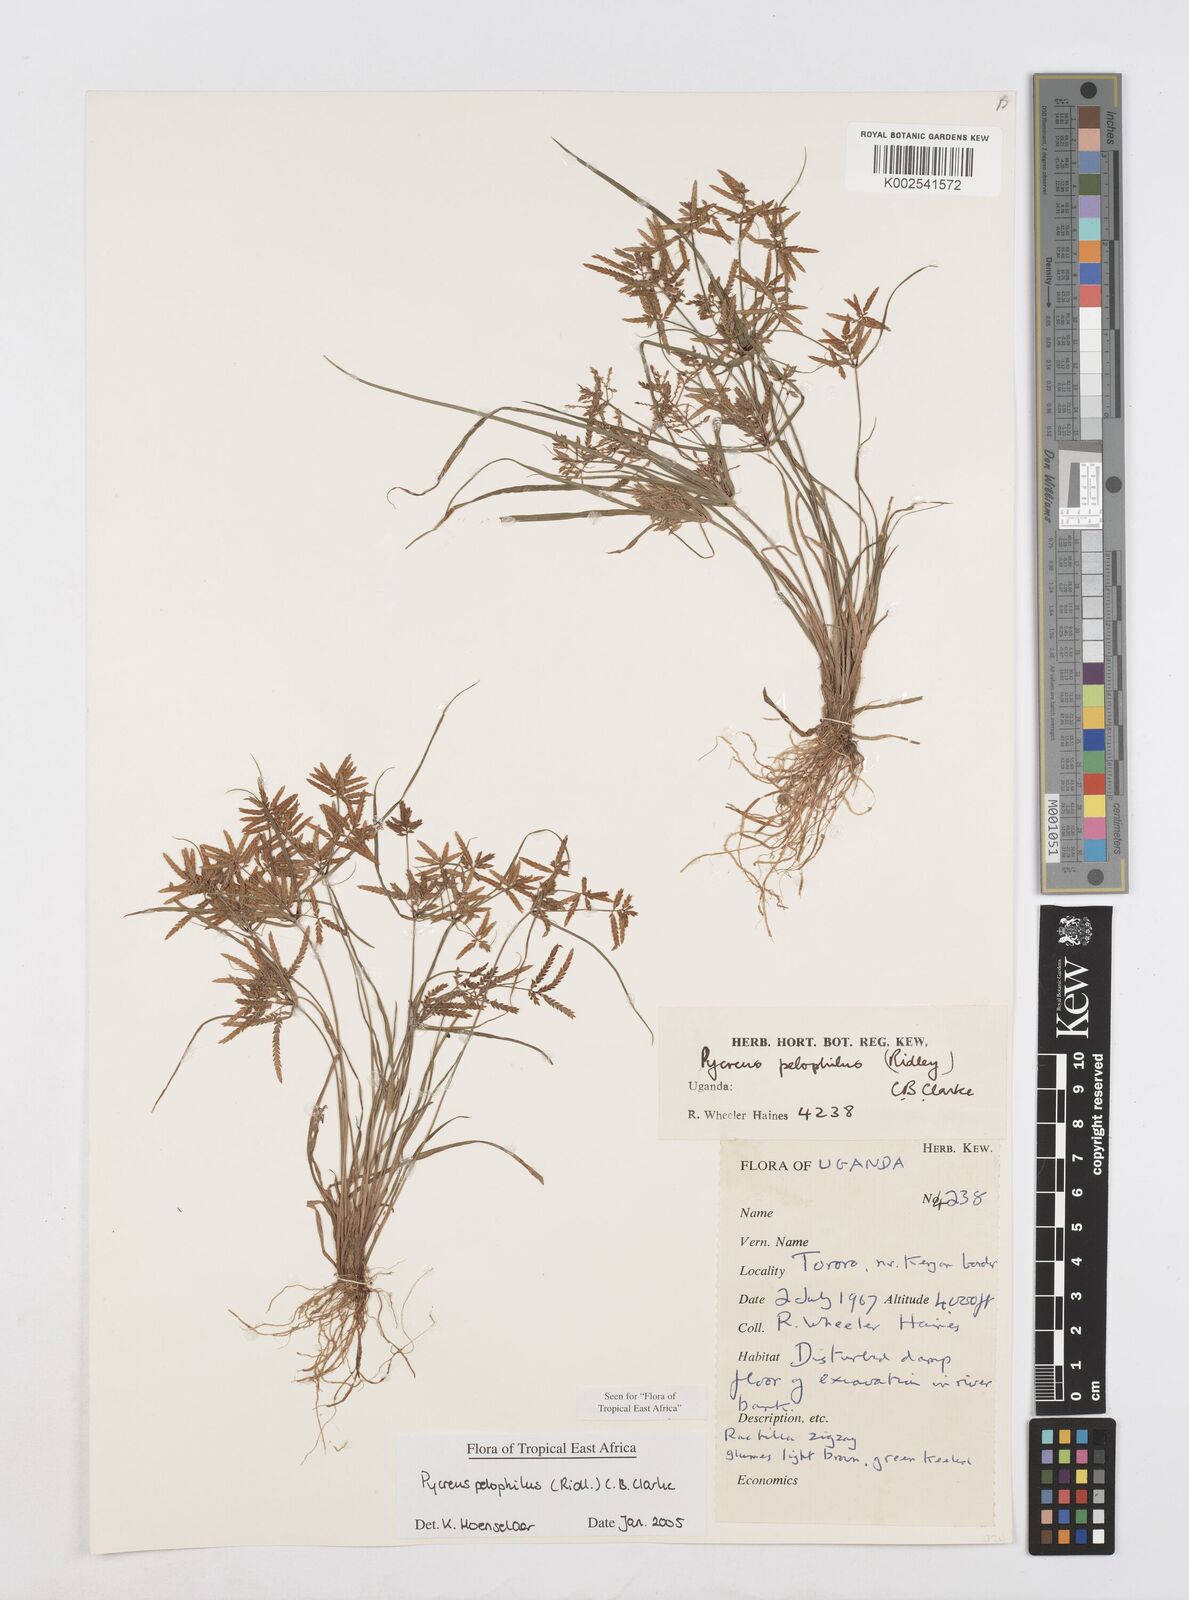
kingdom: Plantae
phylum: Tracheophyta
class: Liliopsida
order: Poales
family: Cyperaceae
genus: Cyperus
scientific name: Cyperus pelophilus
